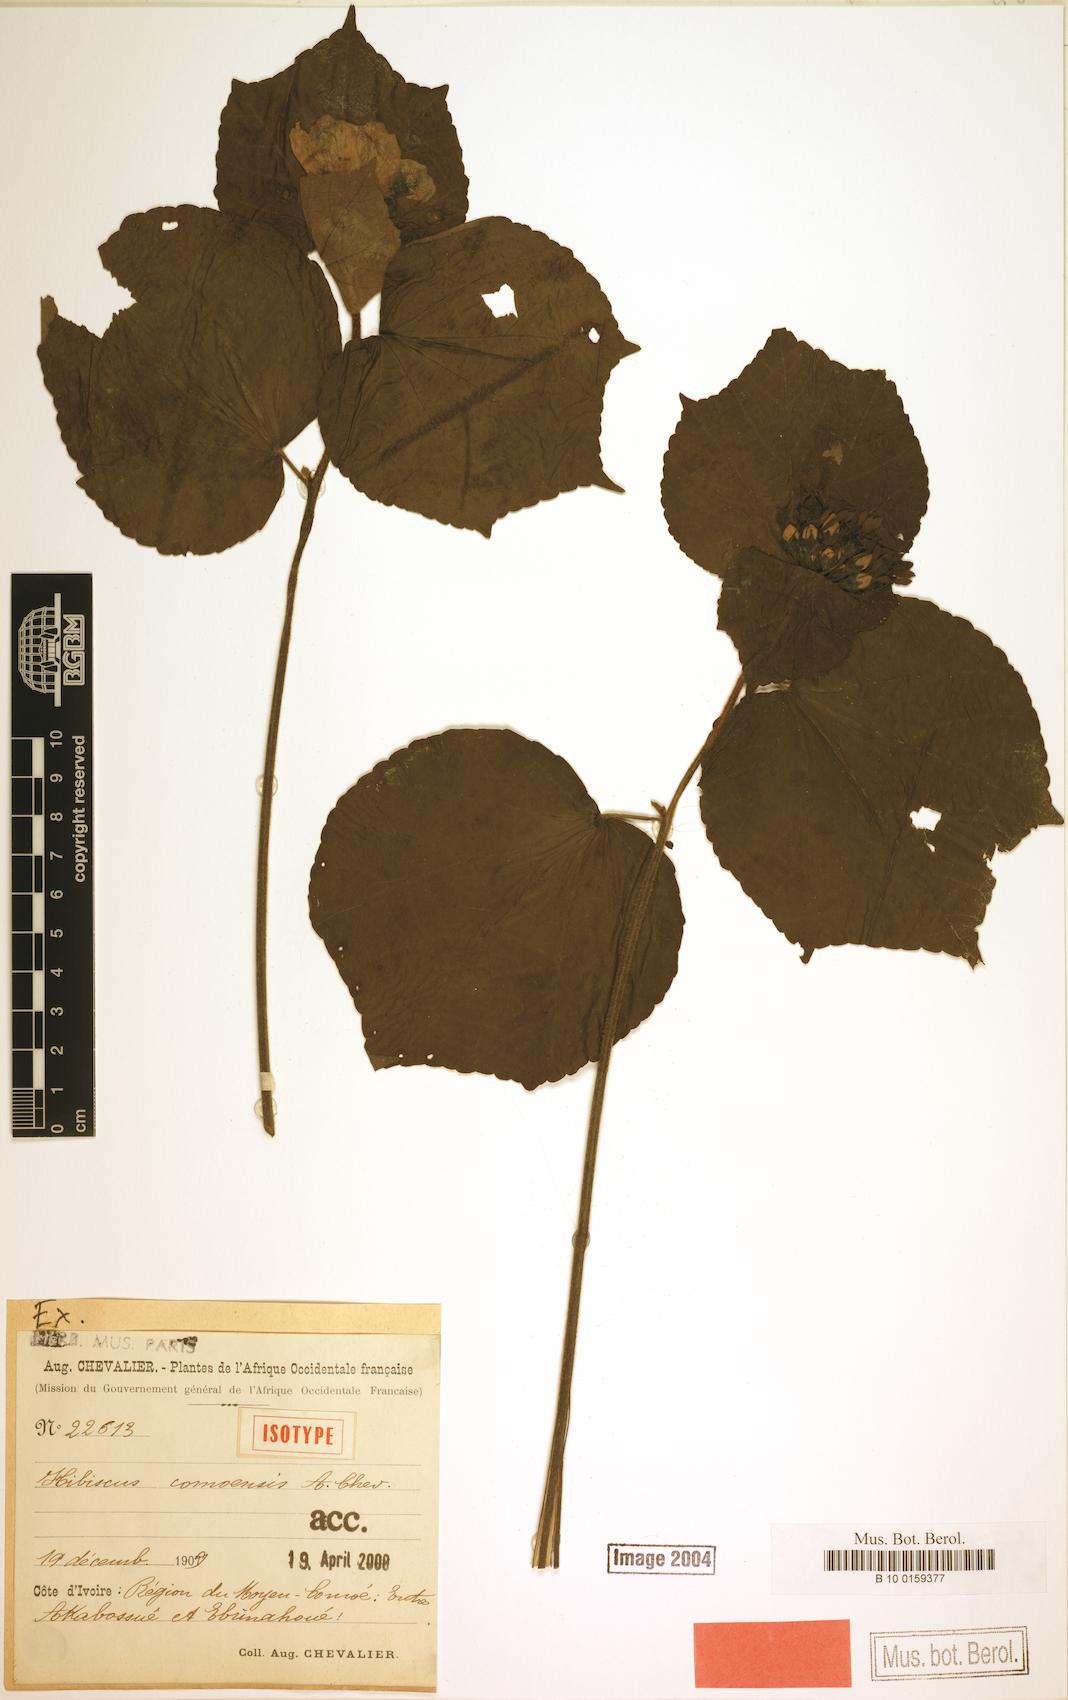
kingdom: Plantae
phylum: Tracheophyta
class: Magnoliopsida
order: Malvales
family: Malvaceae
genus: Hibiscus
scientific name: Hibiscus comoensis
